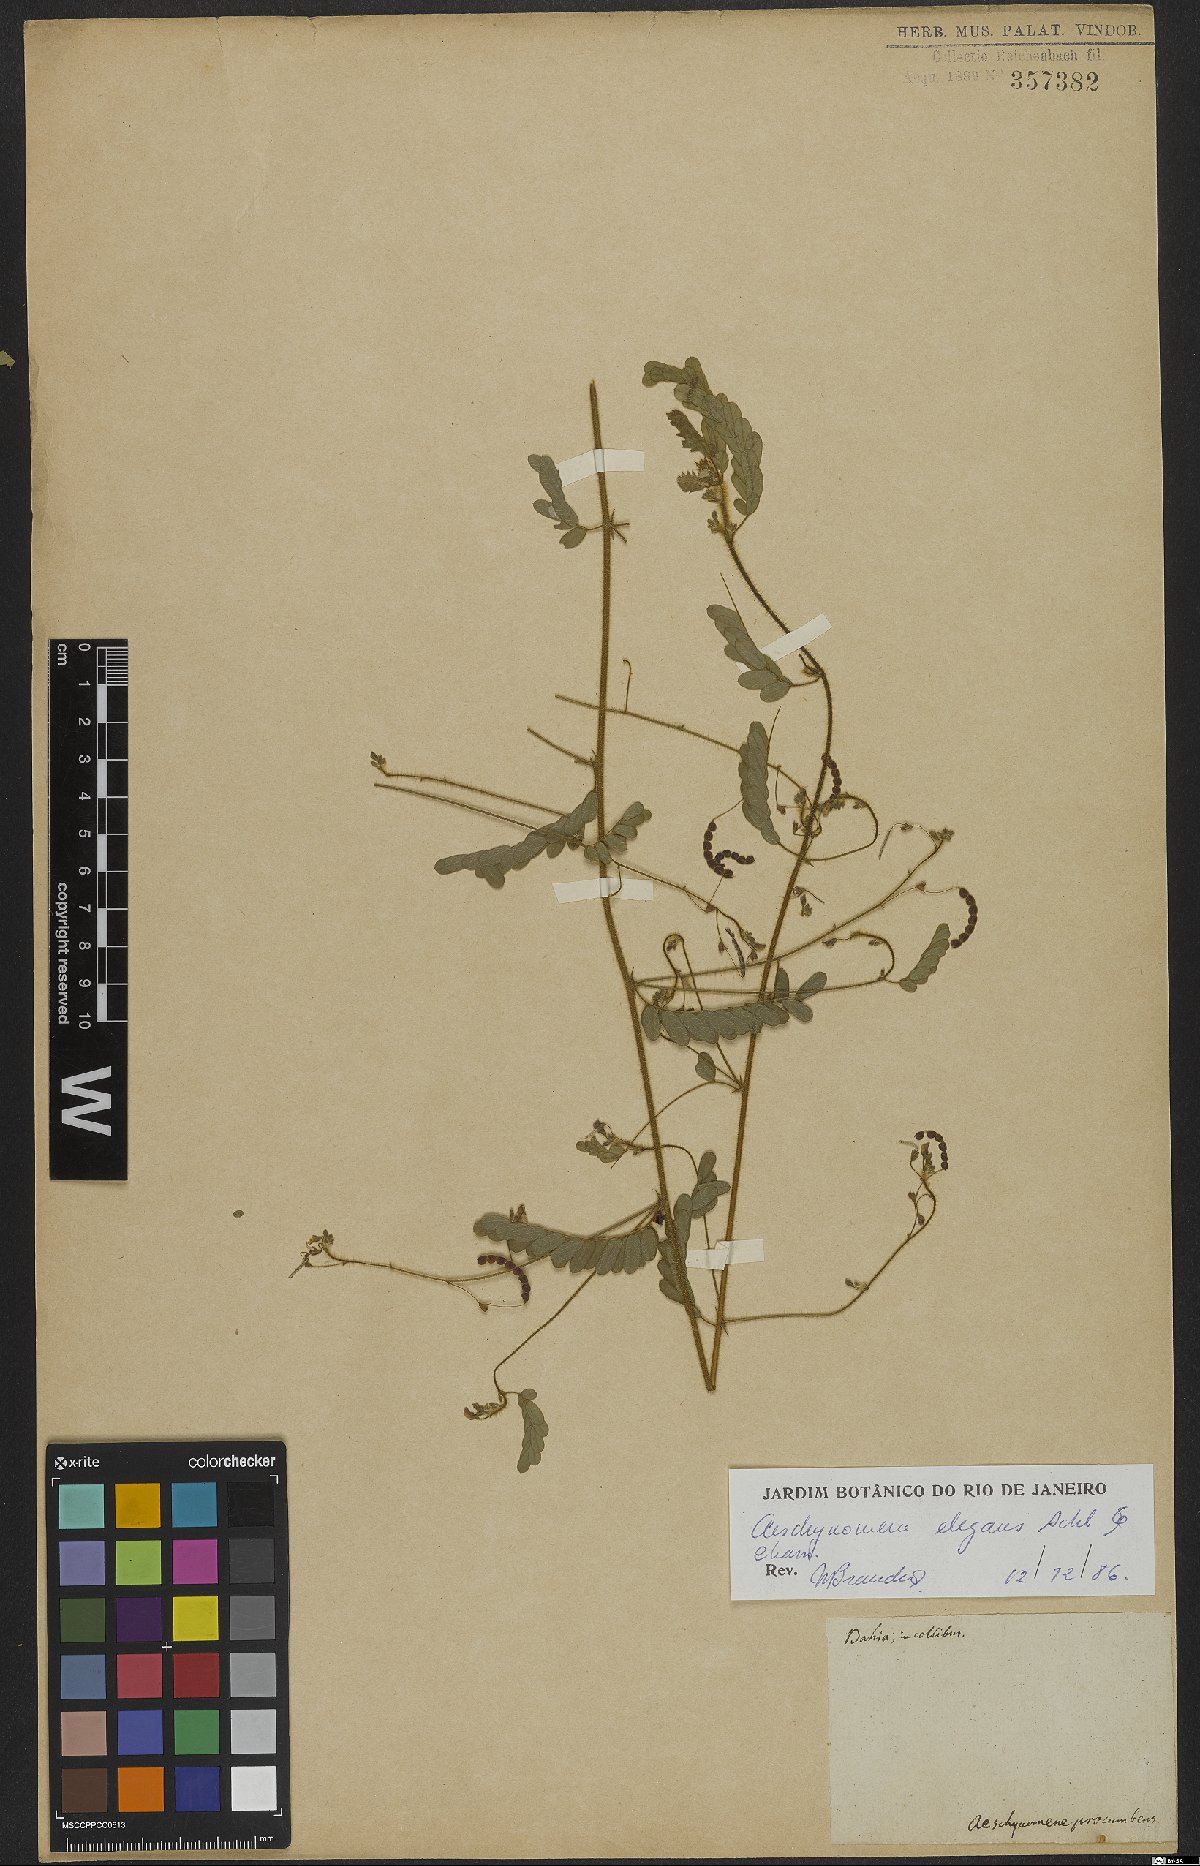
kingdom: Plantae
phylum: Tracheophyta
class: Magnoliopsida
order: Fabales
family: Fabaceae
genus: Ctenodon
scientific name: Ctenodon elegans
